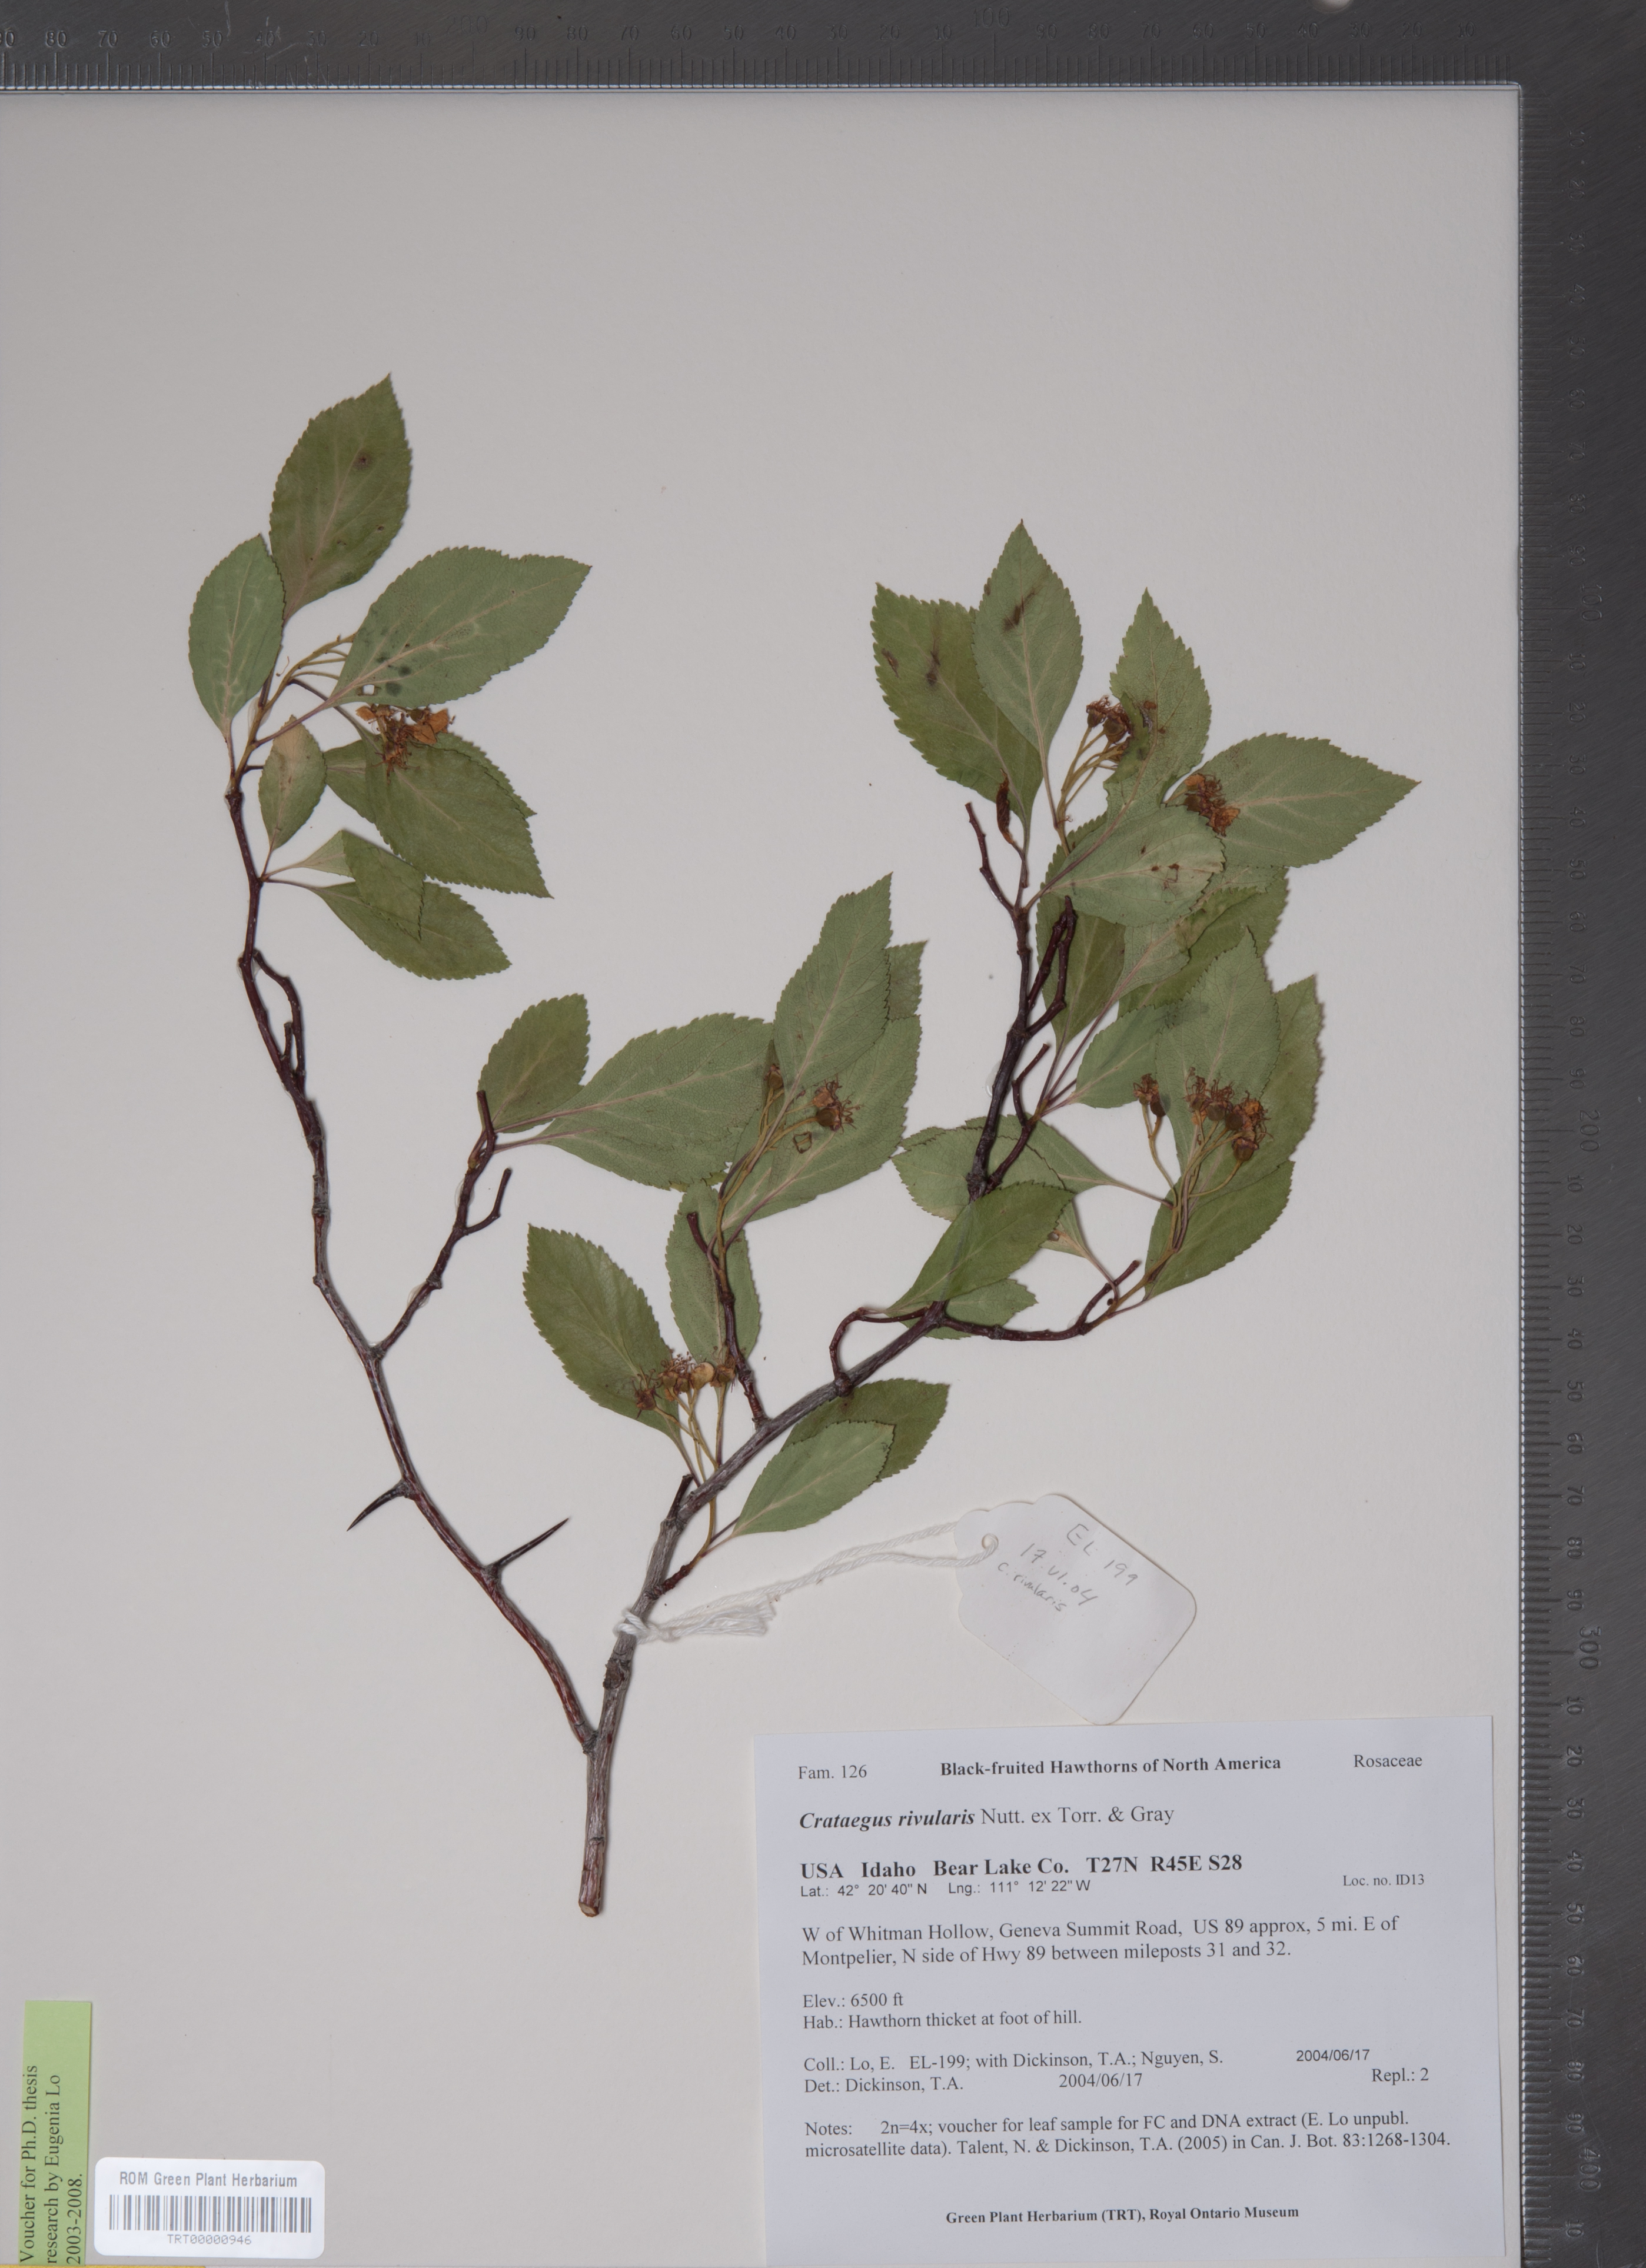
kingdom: Plantae
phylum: Tracheophyta
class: Magnoliopsida
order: Rosales
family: Rosaceae
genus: Crataegus
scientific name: Crataegus rivularis
